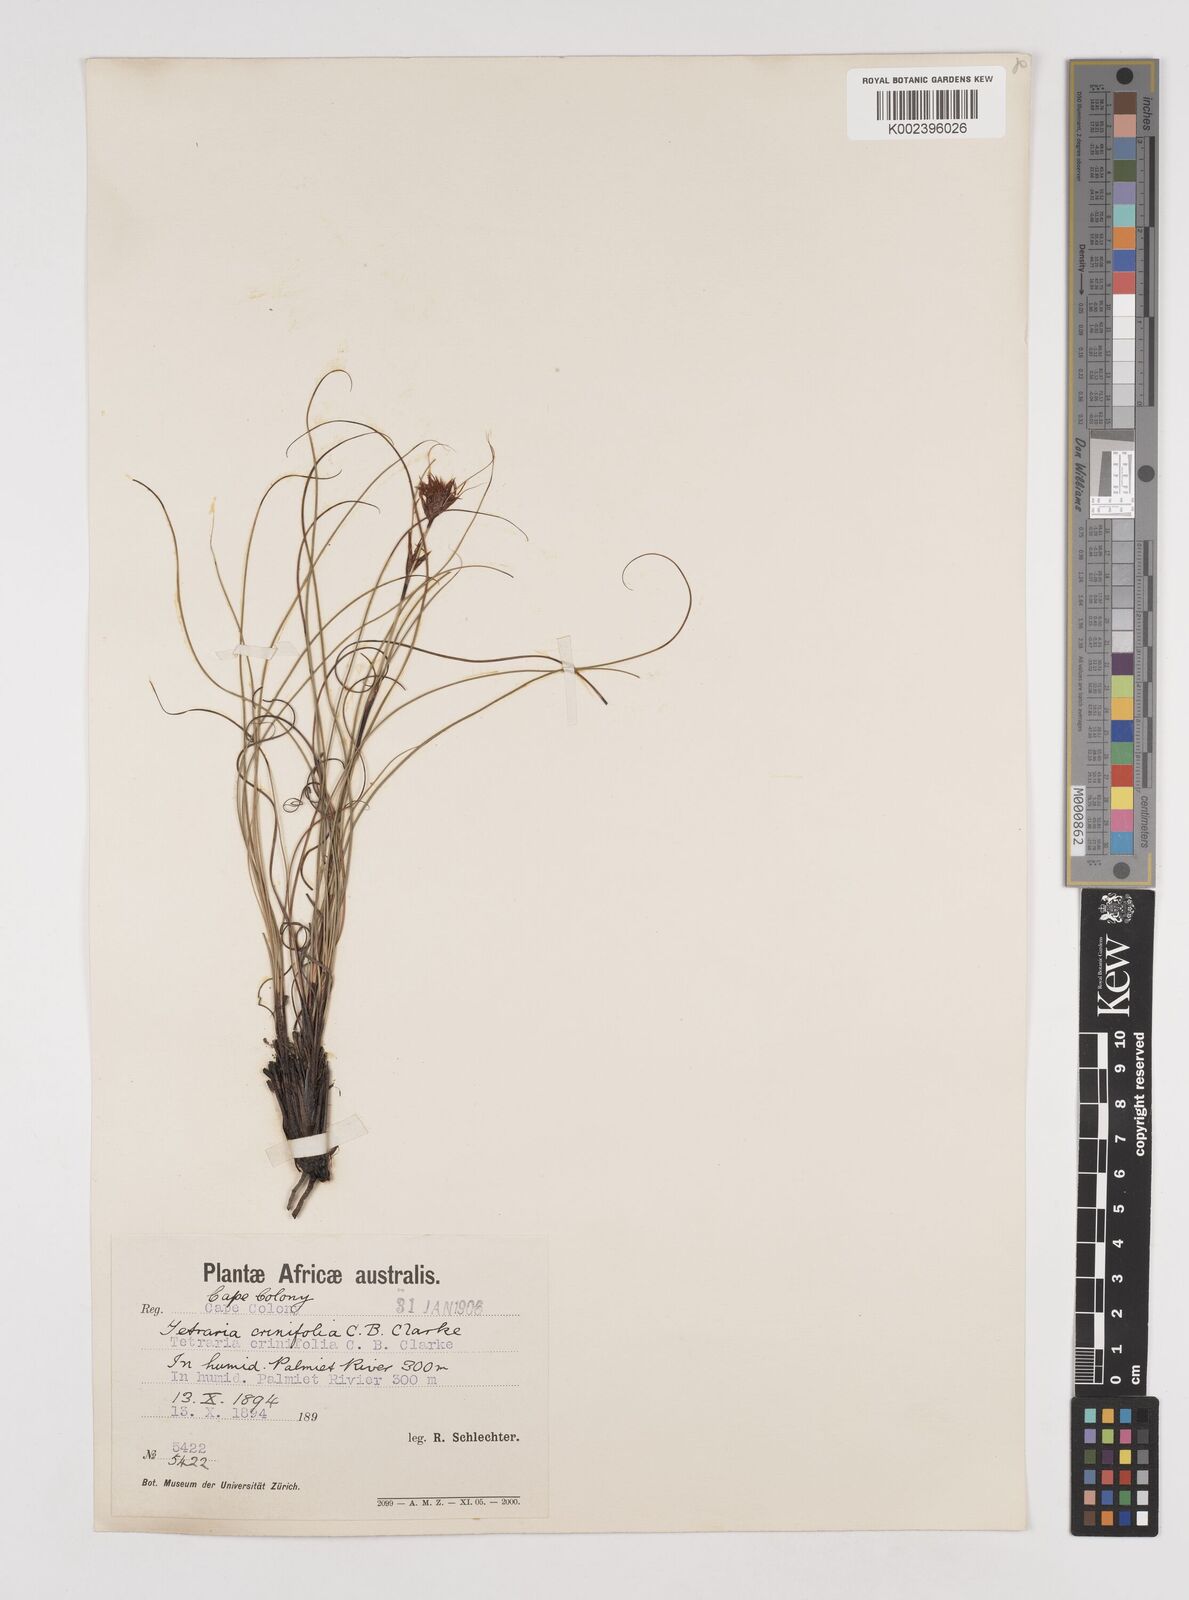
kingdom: Plantae
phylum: Tracheophyta
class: Liliopsida
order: Poales
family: Cyperaceae
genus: Tetraria
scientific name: Tetraria crinifolia
